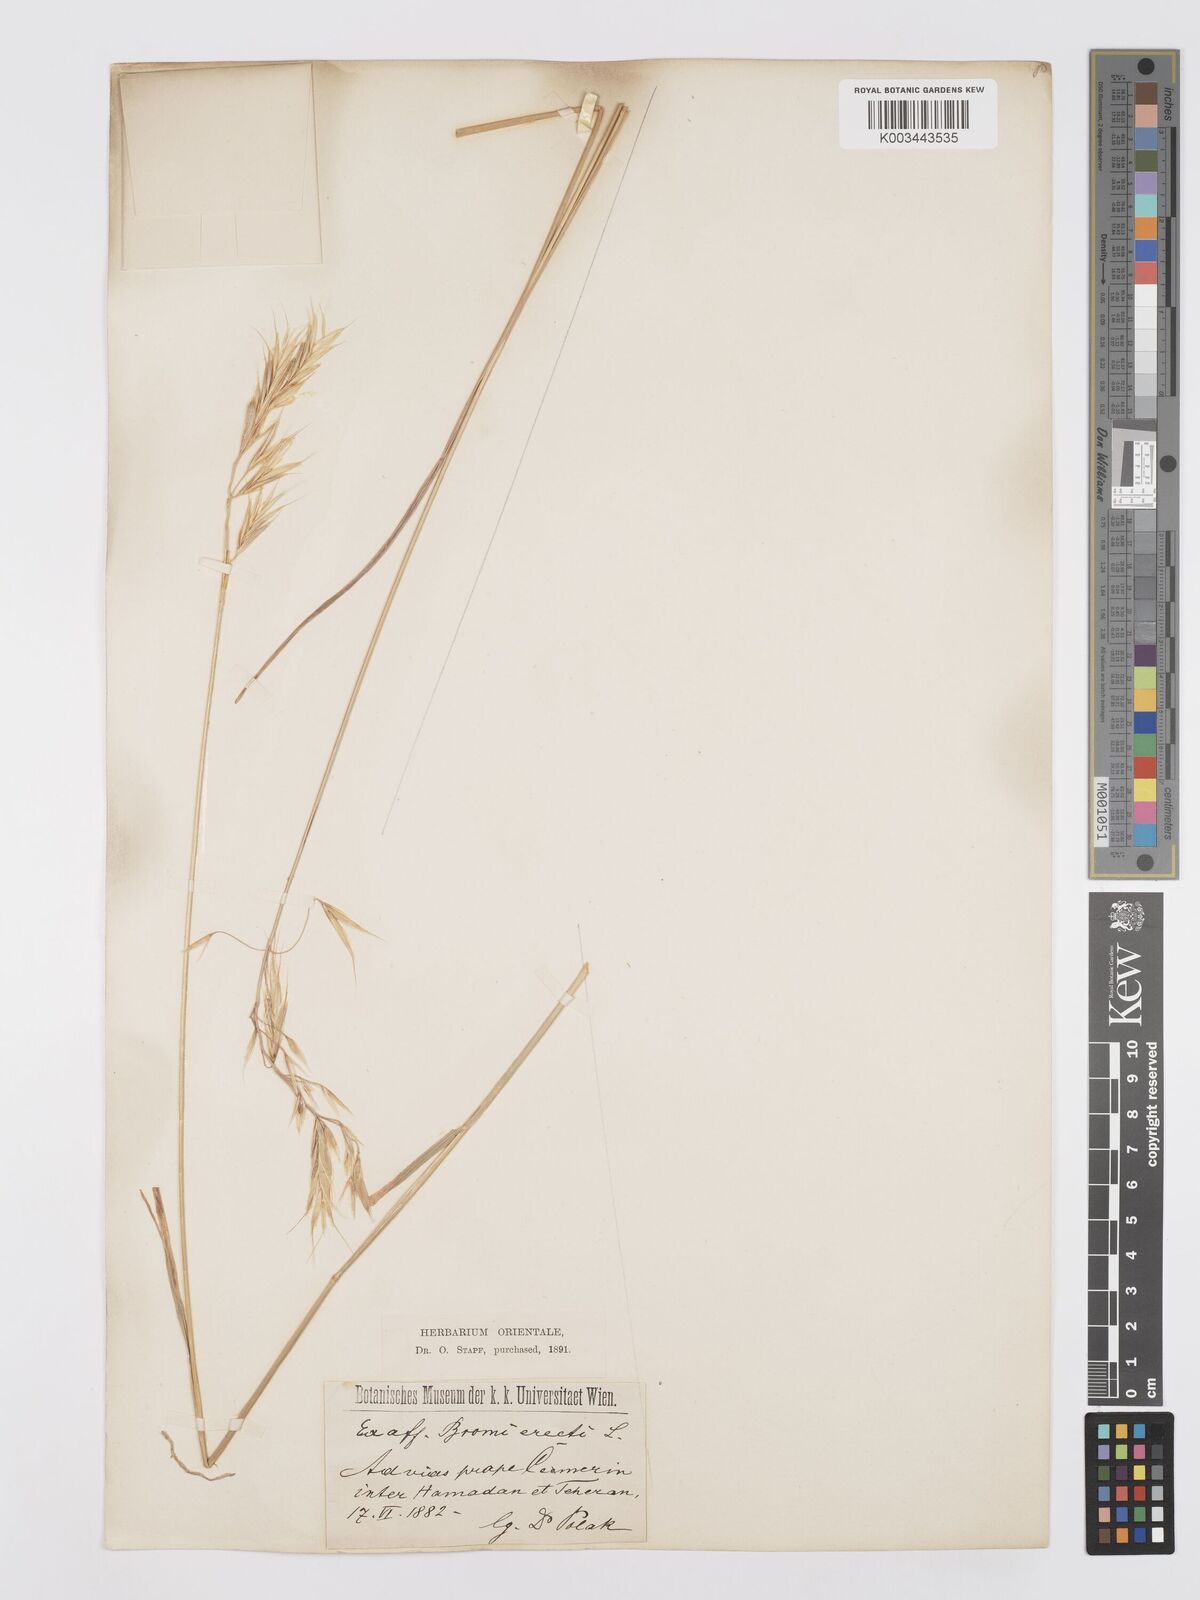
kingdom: Plantae
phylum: Tracheophyta
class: Liliopsida
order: Poales
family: Poaceae
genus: Bromus
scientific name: Bromus tomentellus
